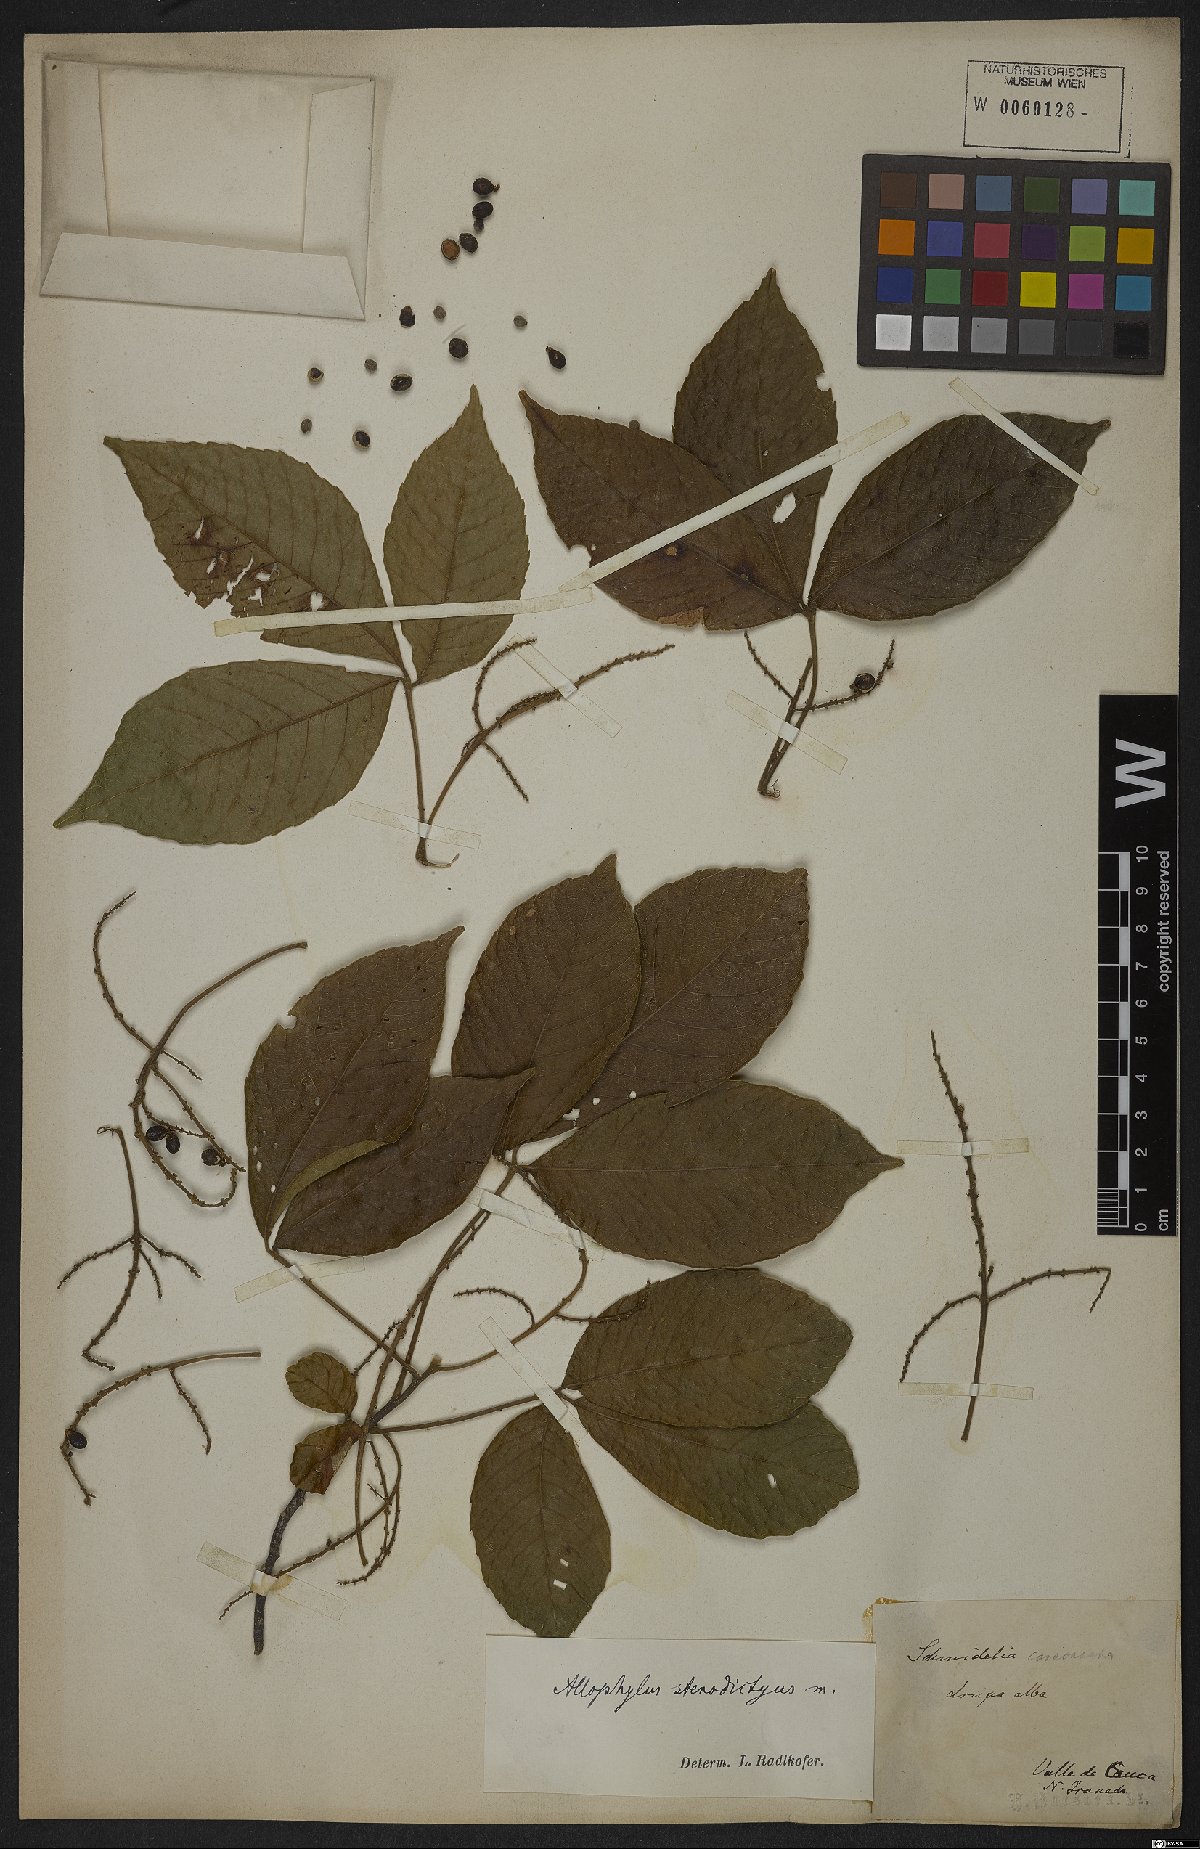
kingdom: Plantae
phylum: Tracheophyta
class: Magnoliopsida
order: Sapindales
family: Sapindaceae
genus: Allophylus
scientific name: Allophylus
